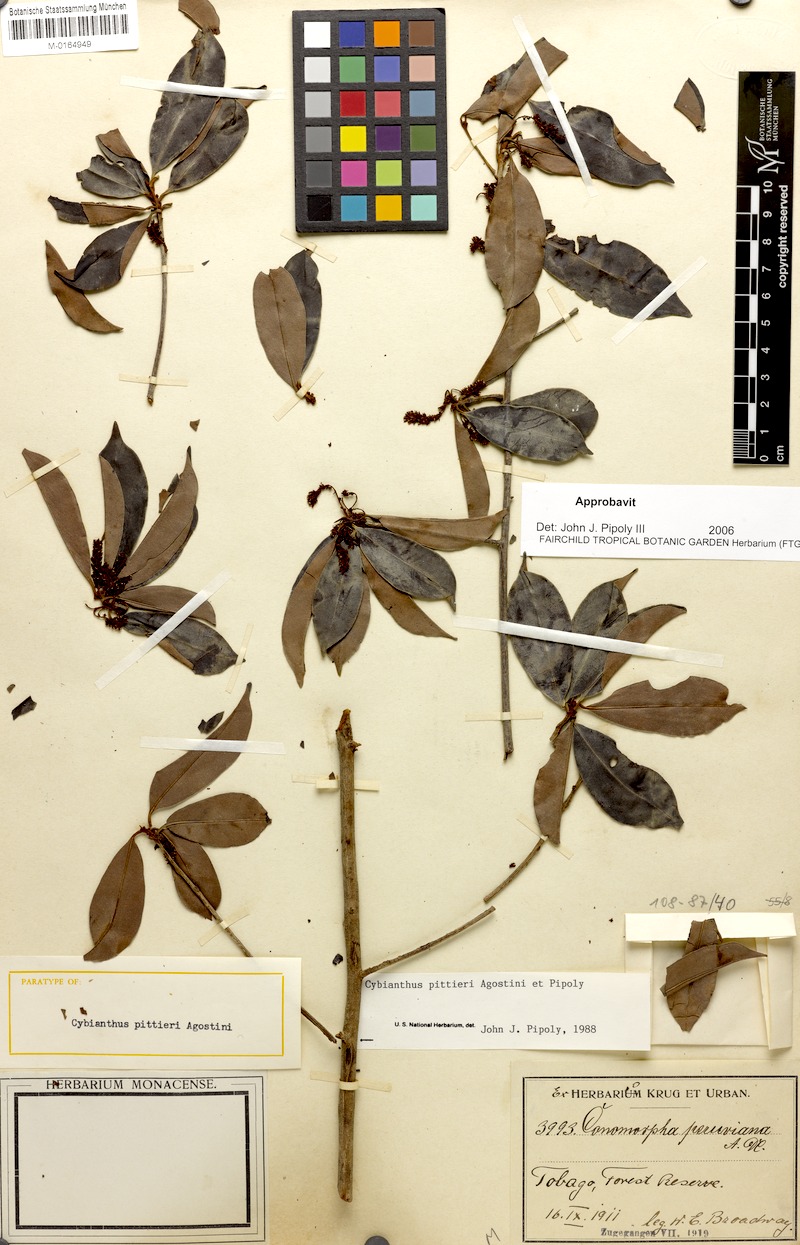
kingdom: Plantae
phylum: Tracheophyta
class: Magnoliopsida
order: Ericales
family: Primulaceae
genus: Cybianthus
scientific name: Cybianthus pittieri
